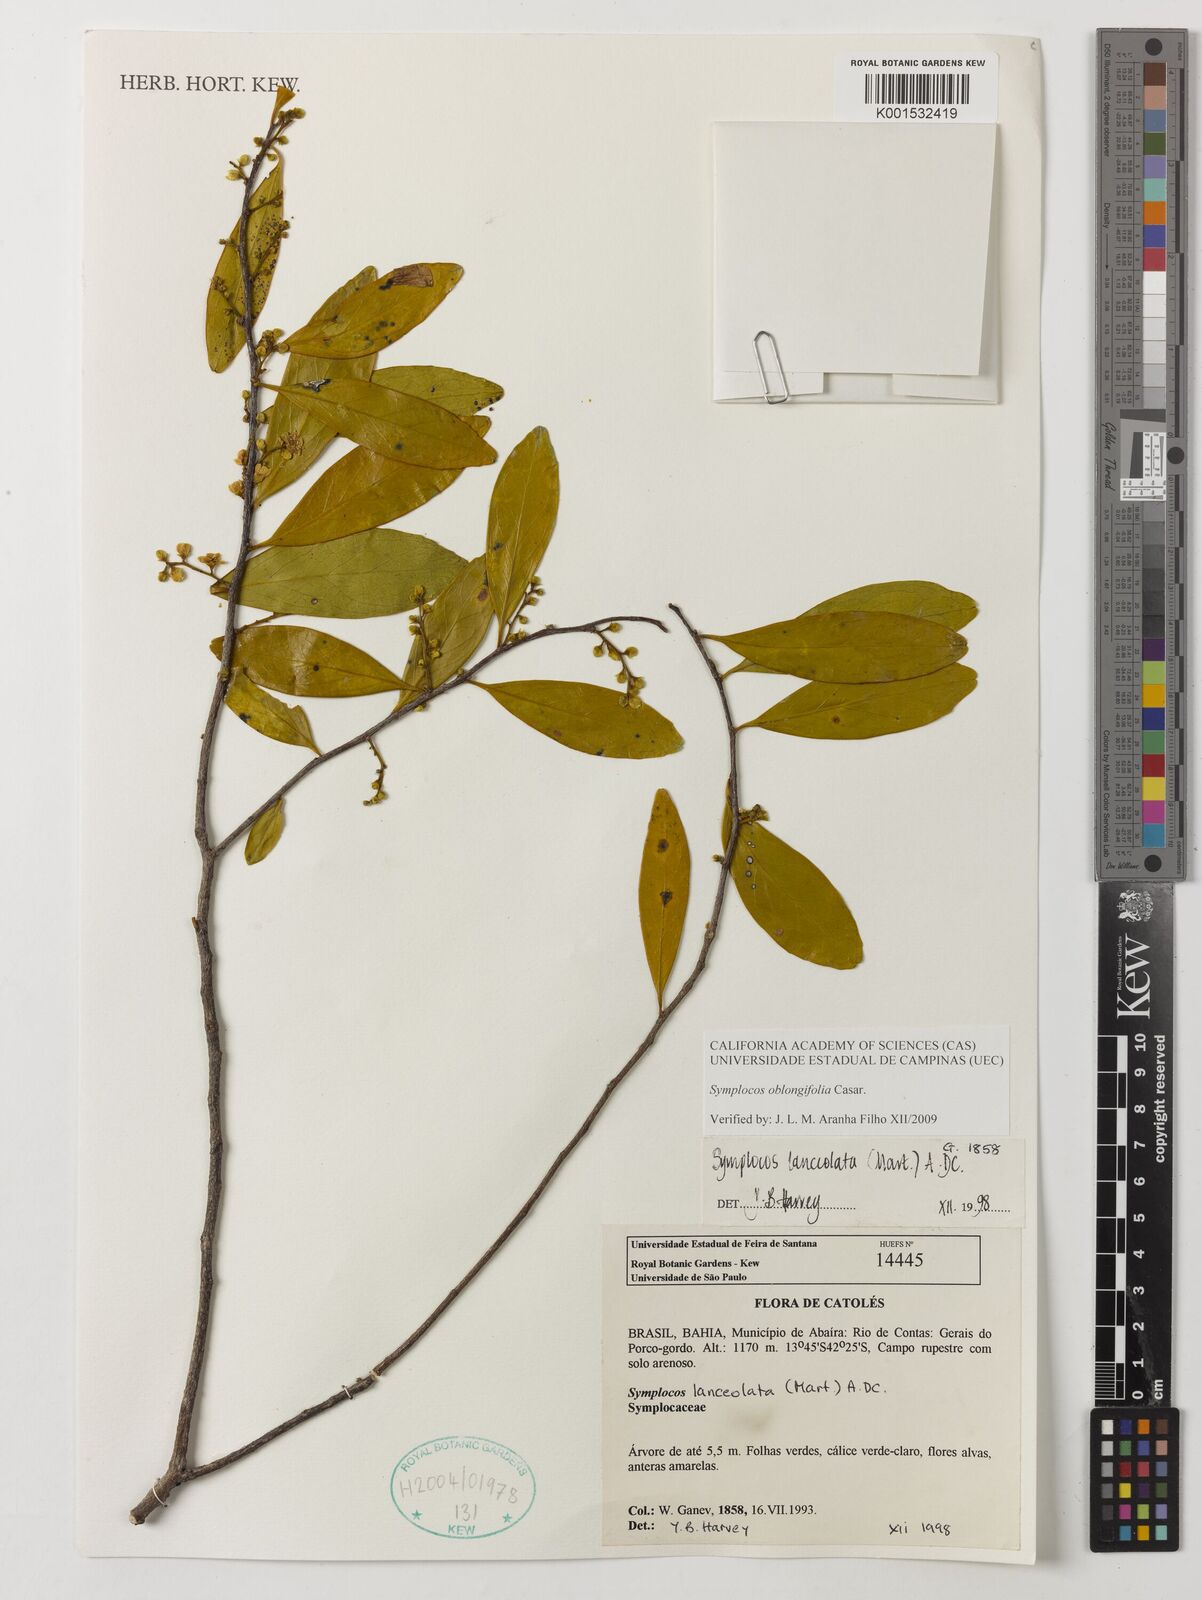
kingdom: Plantae
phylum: Tracheophyta
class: Magnoliopsida
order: Ericales
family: Symplocaceae
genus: Symplocos
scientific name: Symplocos oblongifolia
